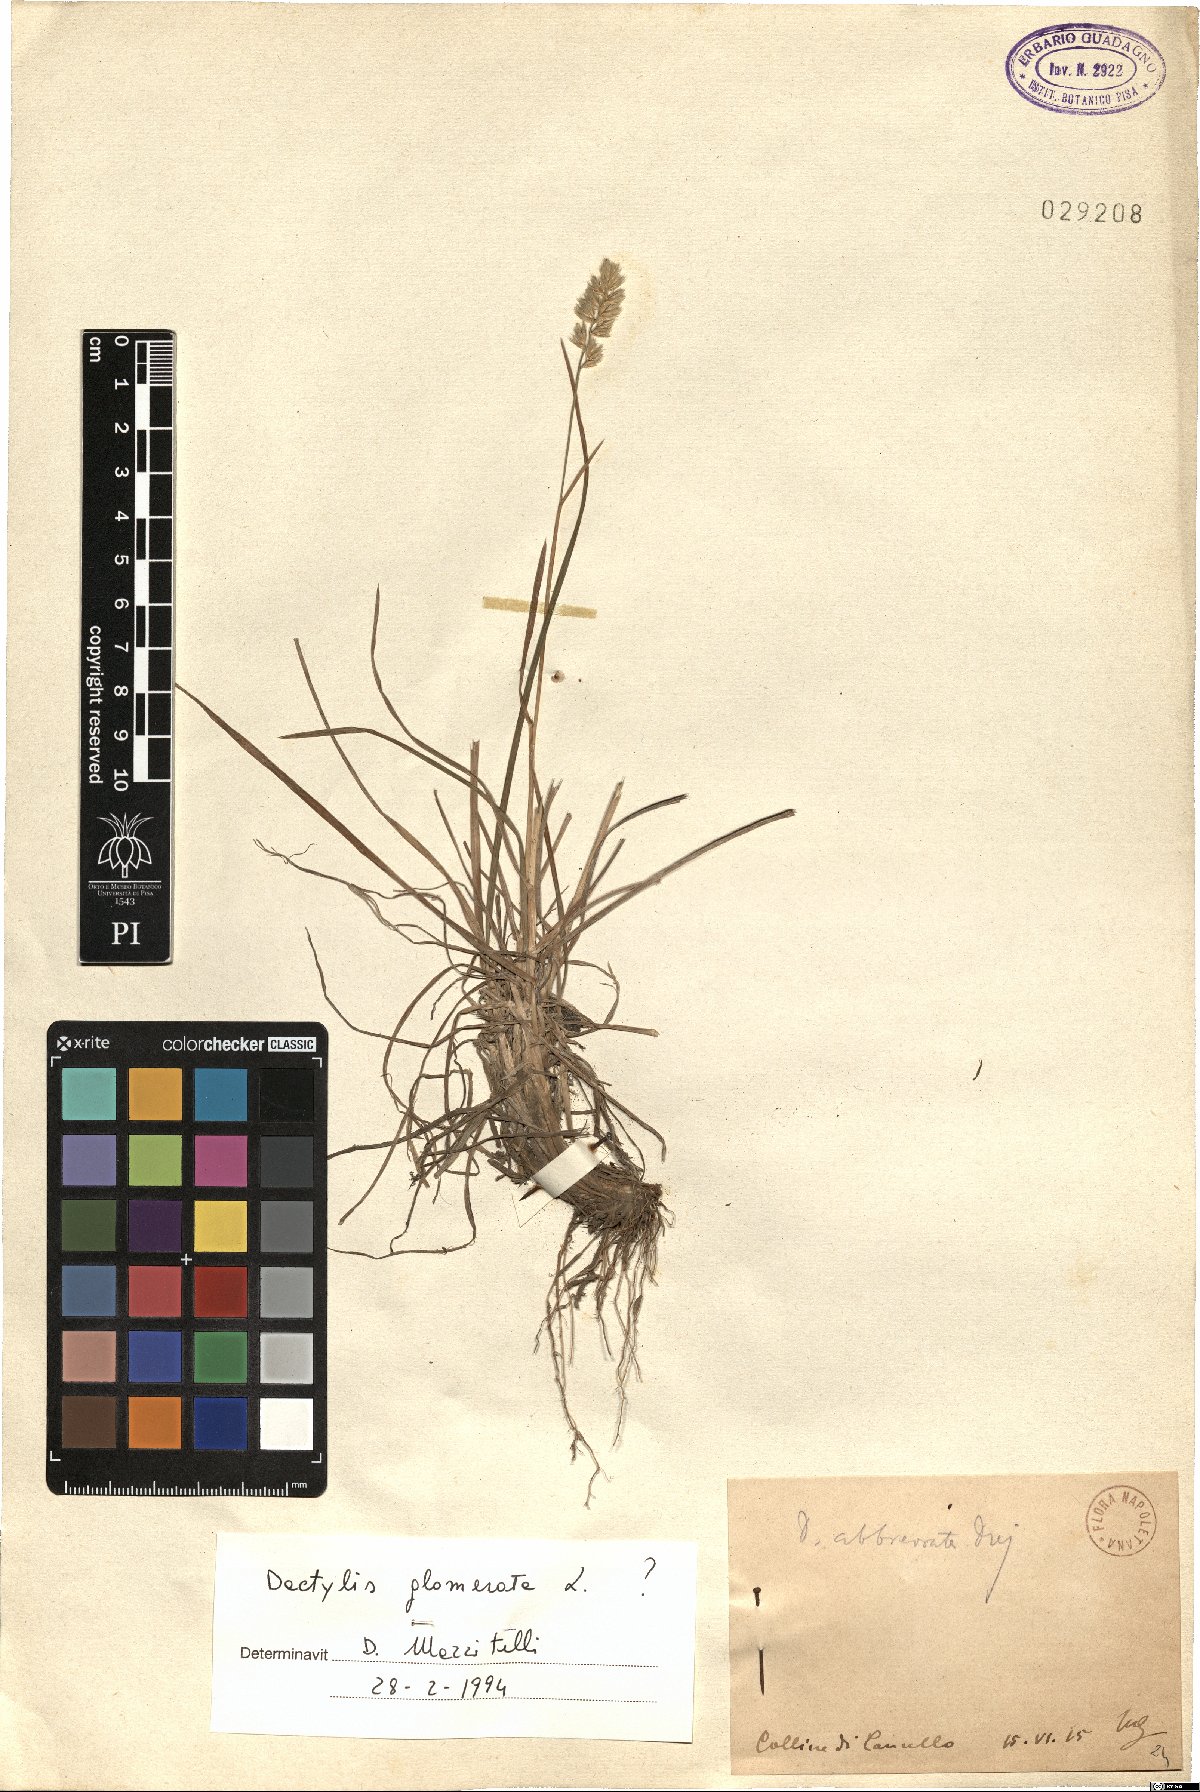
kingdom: Plantae
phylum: Tracheophyta
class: Liliopsida
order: Poales
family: Poaceae
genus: Dactylis
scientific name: Dactylis glomerata
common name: Orchardgrass
